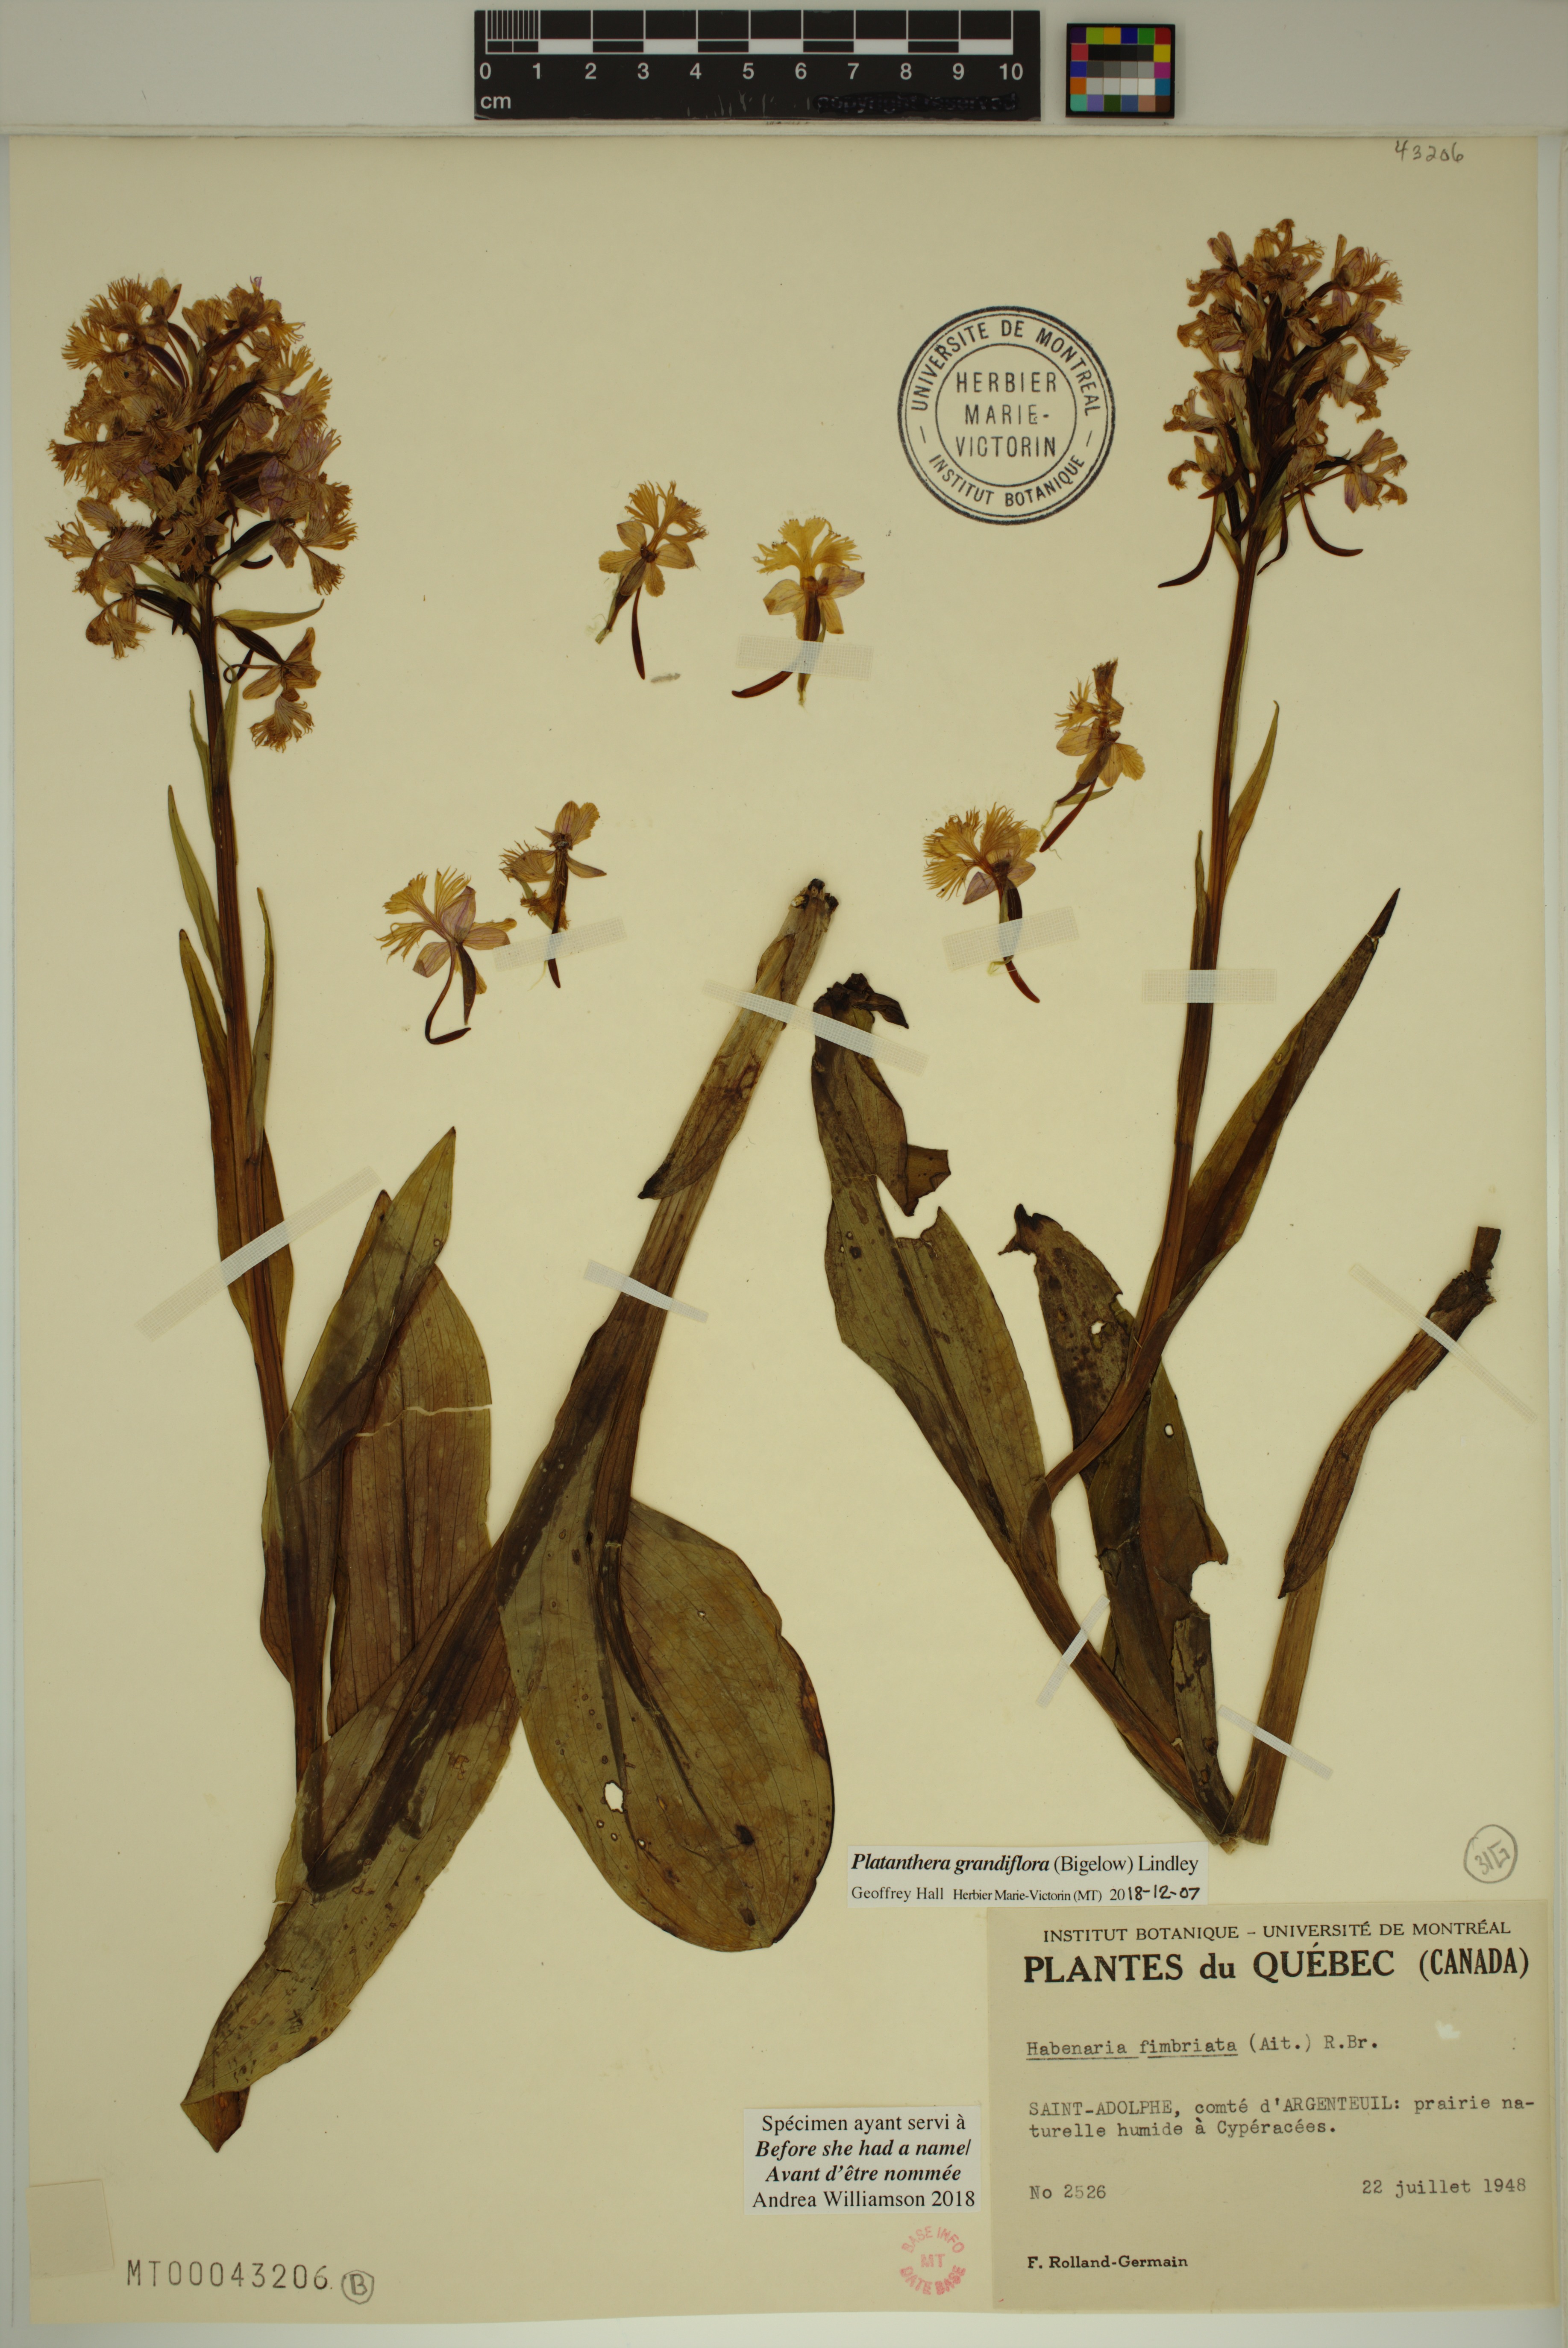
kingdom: Plantae
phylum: Tracheophyta
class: Liliopsida
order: Asparagales
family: Orchidaceae
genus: Platanthera
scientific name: Platanthera grandiflora
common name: Greater purple fringed orchid
